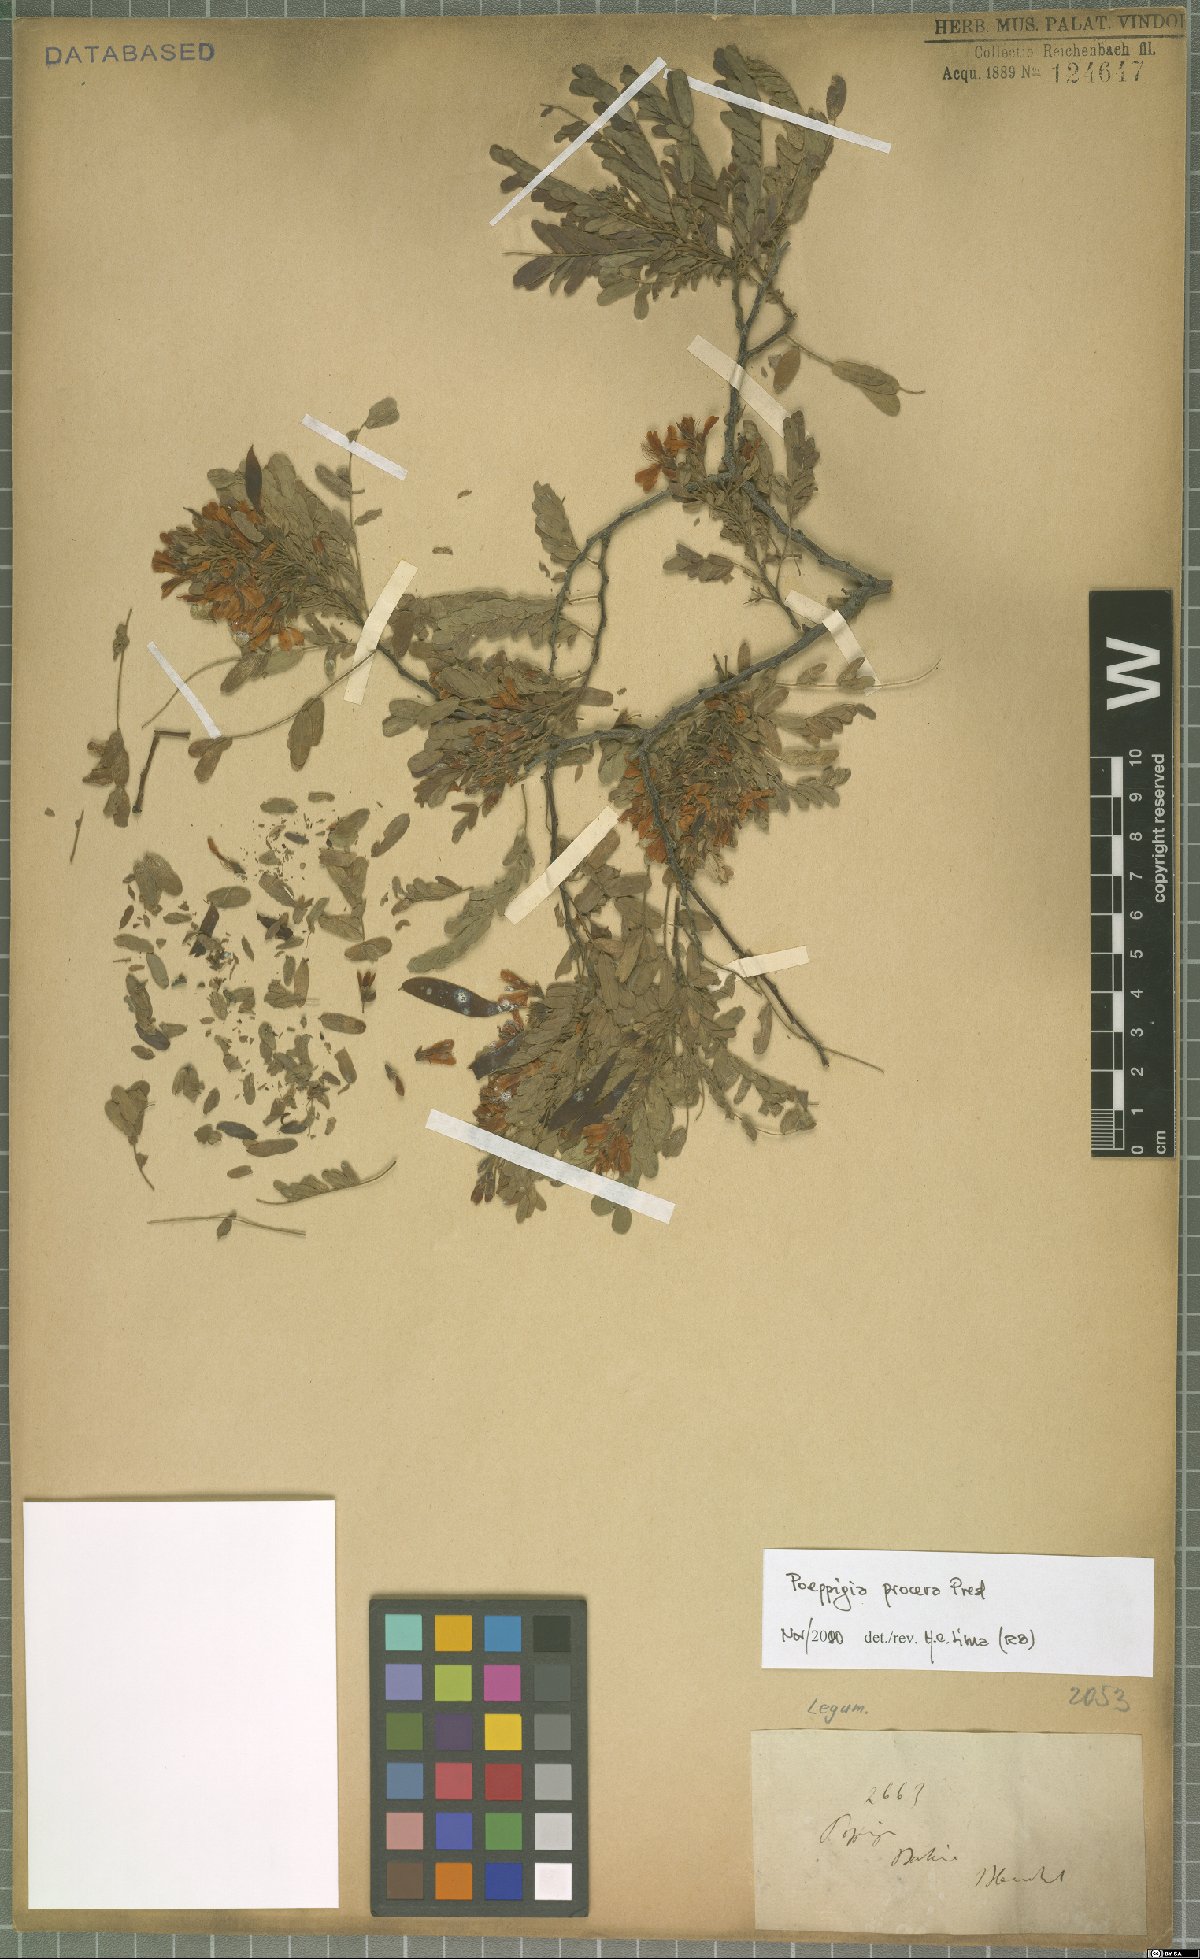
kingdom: Plantae
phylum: Tracheophyta
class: Magnoliopsida
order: Fabales
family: Fabaceae
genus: Poeppigia
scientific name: Poeppigia procera
